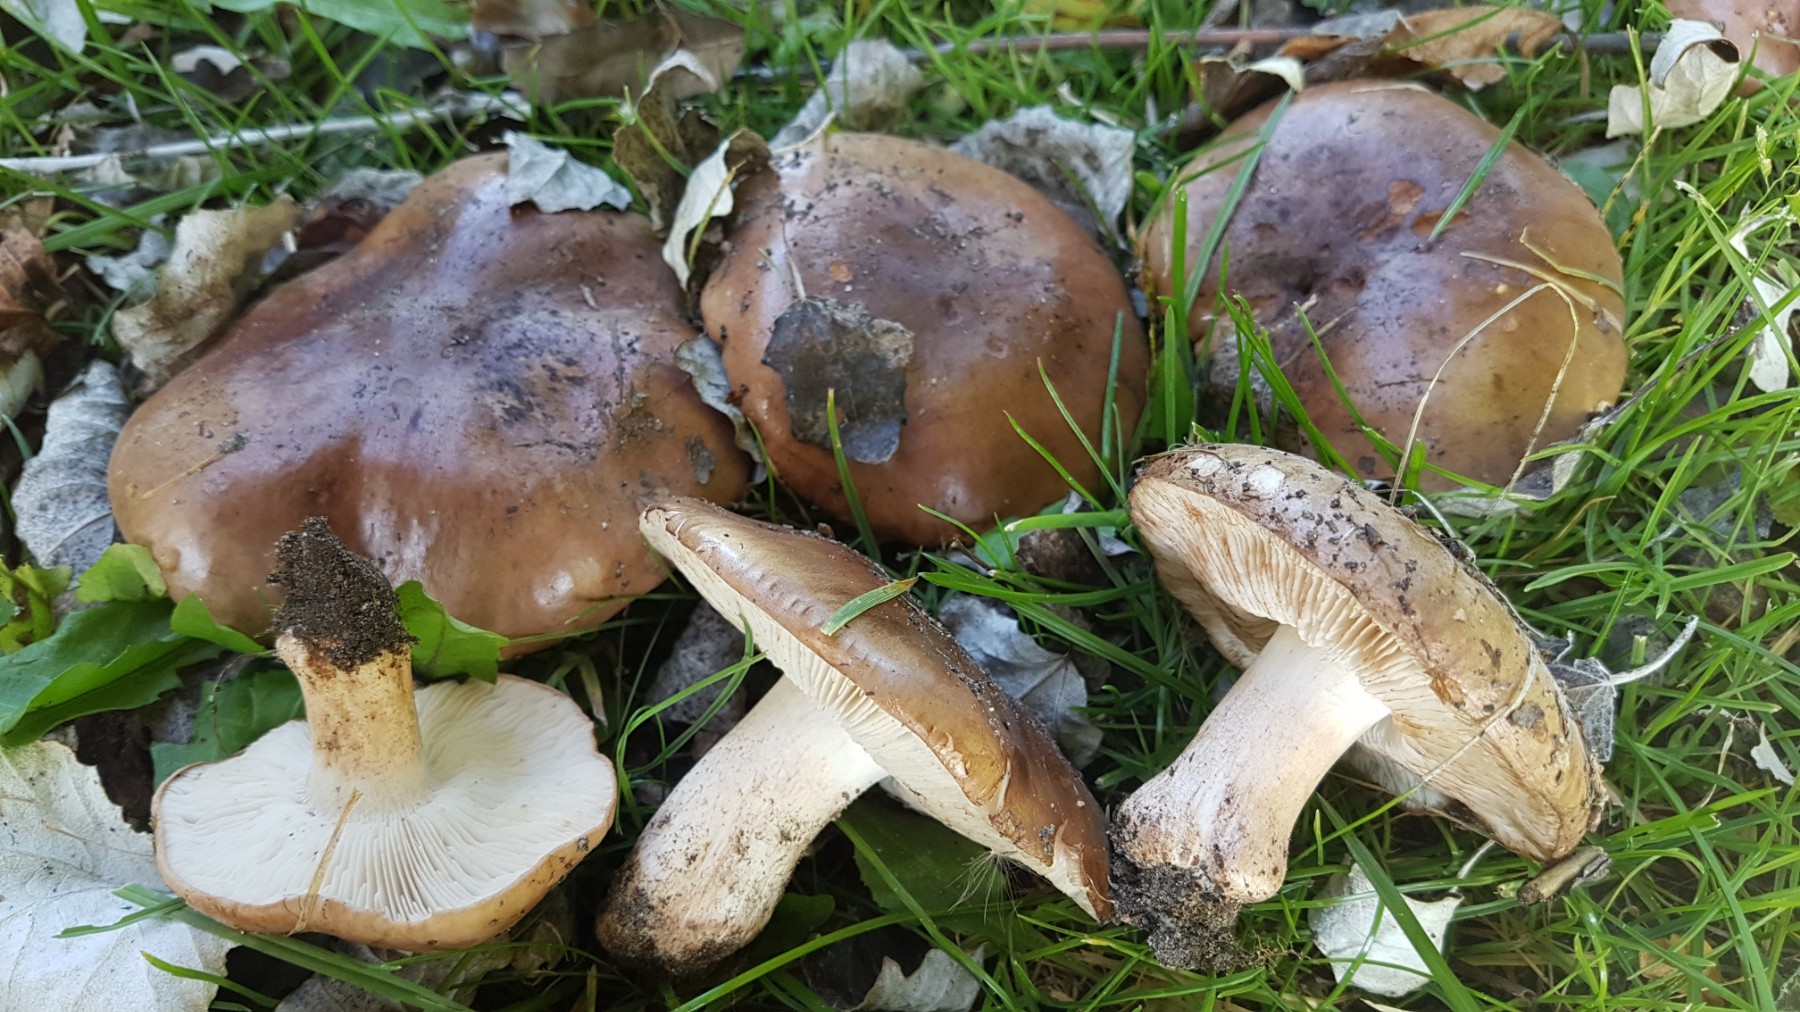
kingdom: Fungi
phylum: Basidiomycota
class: Agaricomycetes
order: Agaricales
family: Tricholomataceae
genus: Tricholoma
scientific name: Tricholoma populinum
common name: poppel-ridderhat
